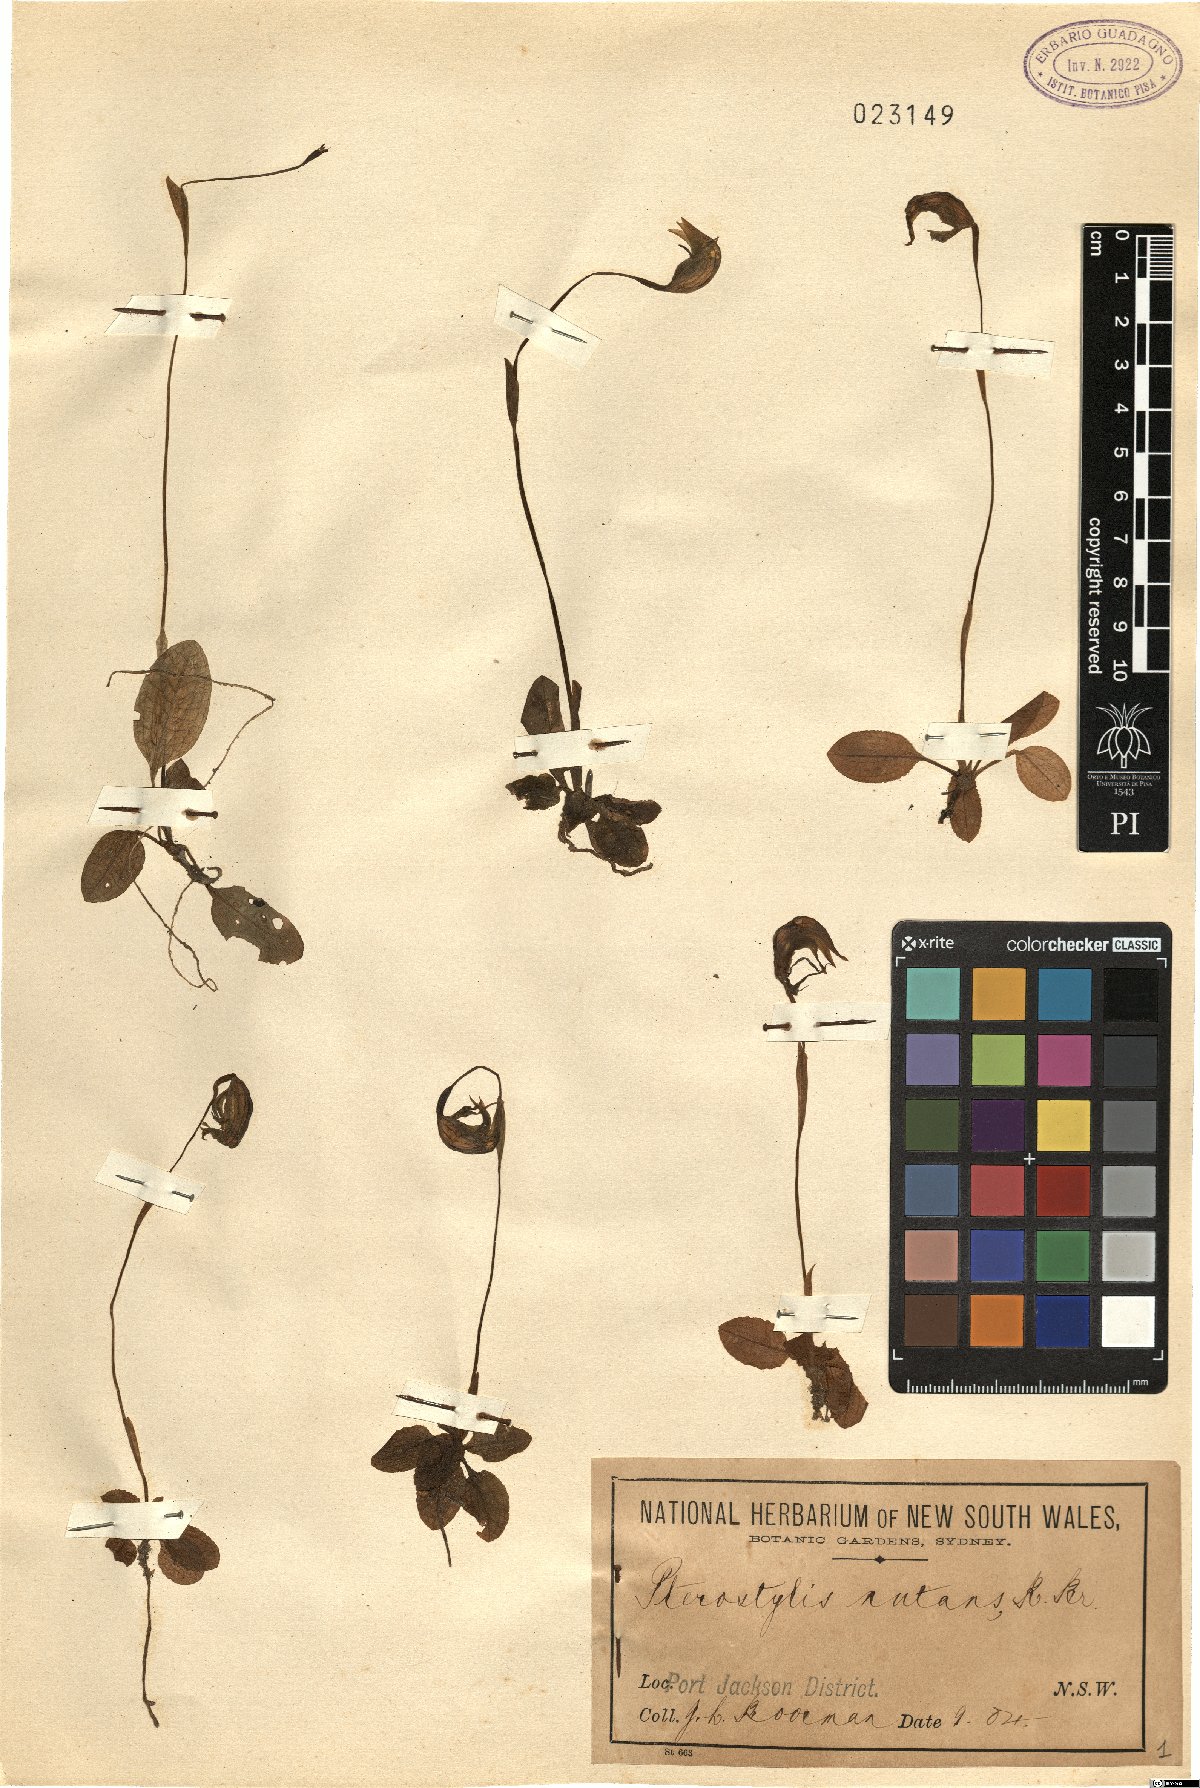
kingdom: Plantae
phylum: Tracheophyta
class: Liliopsida
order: Asparagales
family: Orchidaceae
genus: Pterostylis
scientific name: Pterostylis nutans
